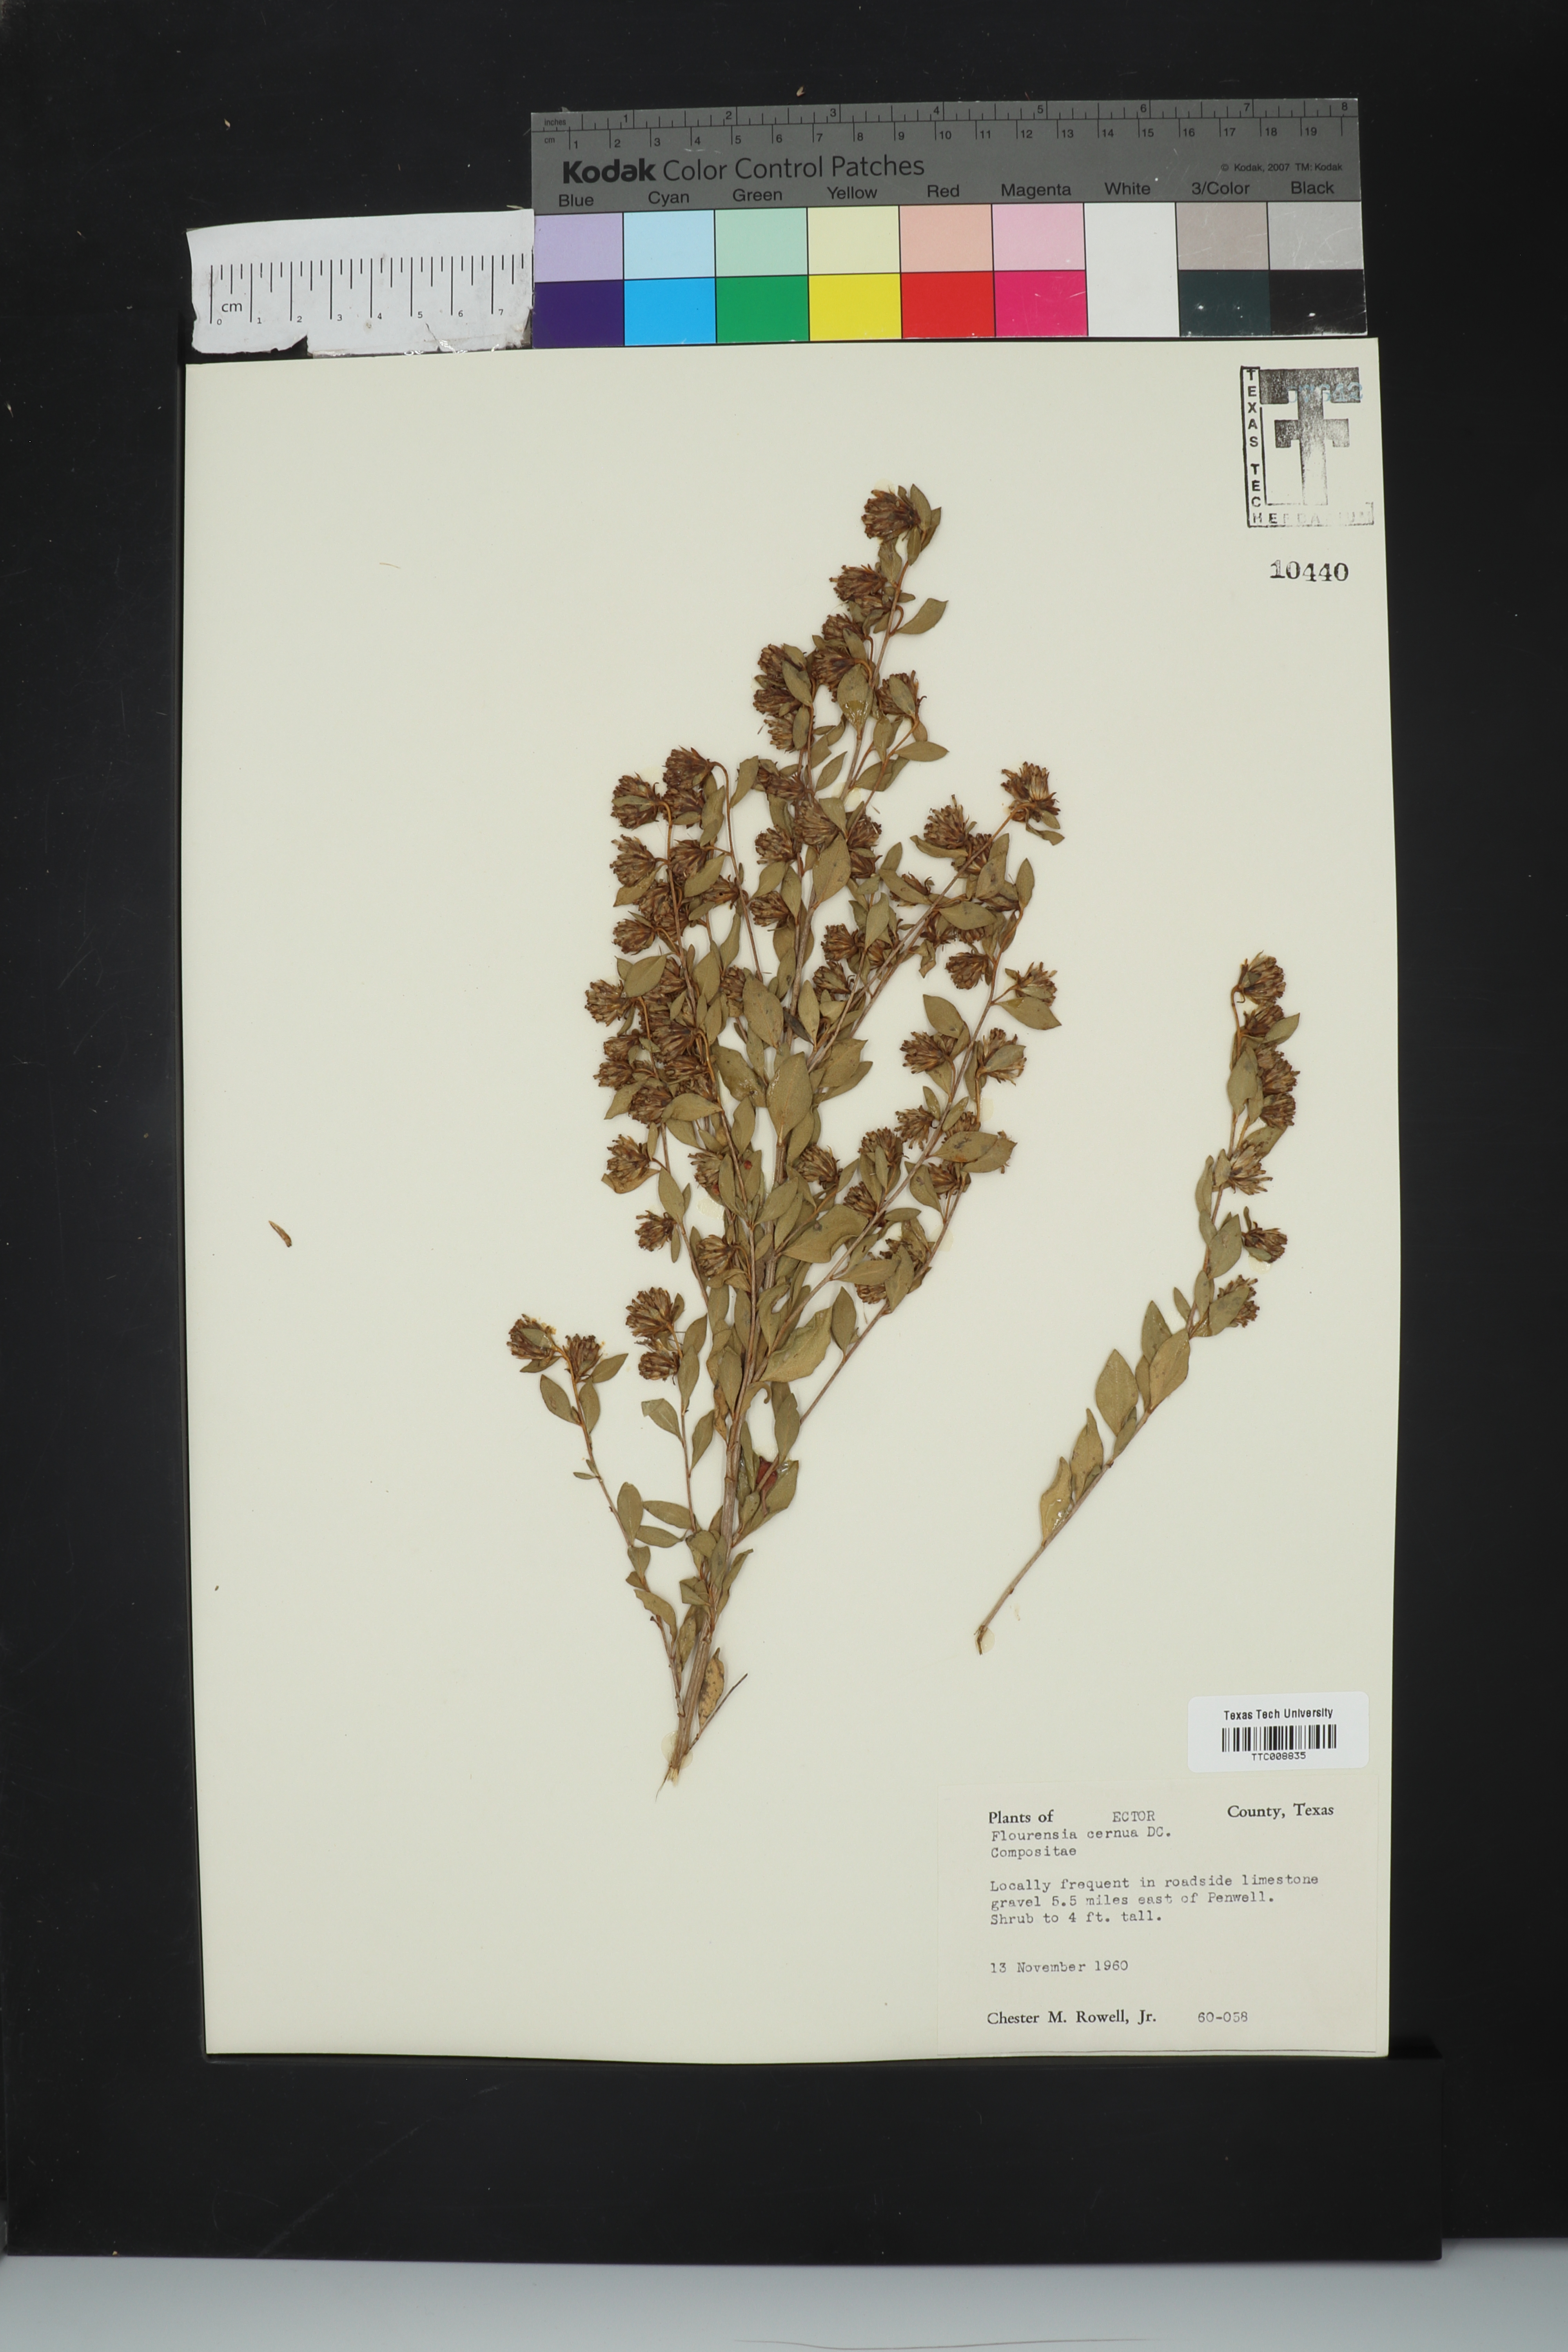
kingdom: Plantae
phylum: Tracheophyta
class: Magnoliopsida
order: Asterales
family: Asteraceae
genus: Flourensia
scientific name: Flourensia cernua
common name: Varnishbush
